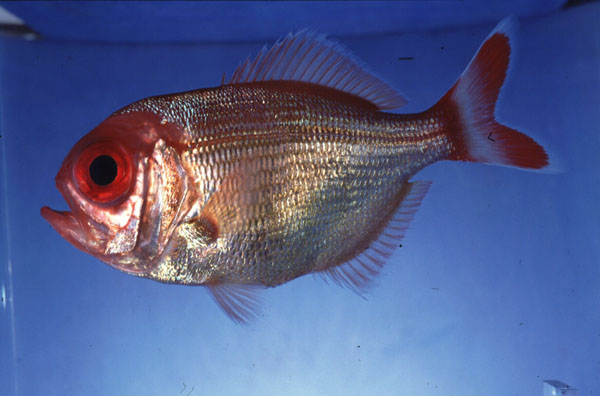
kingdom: Animalia
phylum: Chordata
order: Beryciformes
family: Berycidae
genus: Centroberyx
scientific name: Centroberyx spinosus
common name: Short alfonsino
